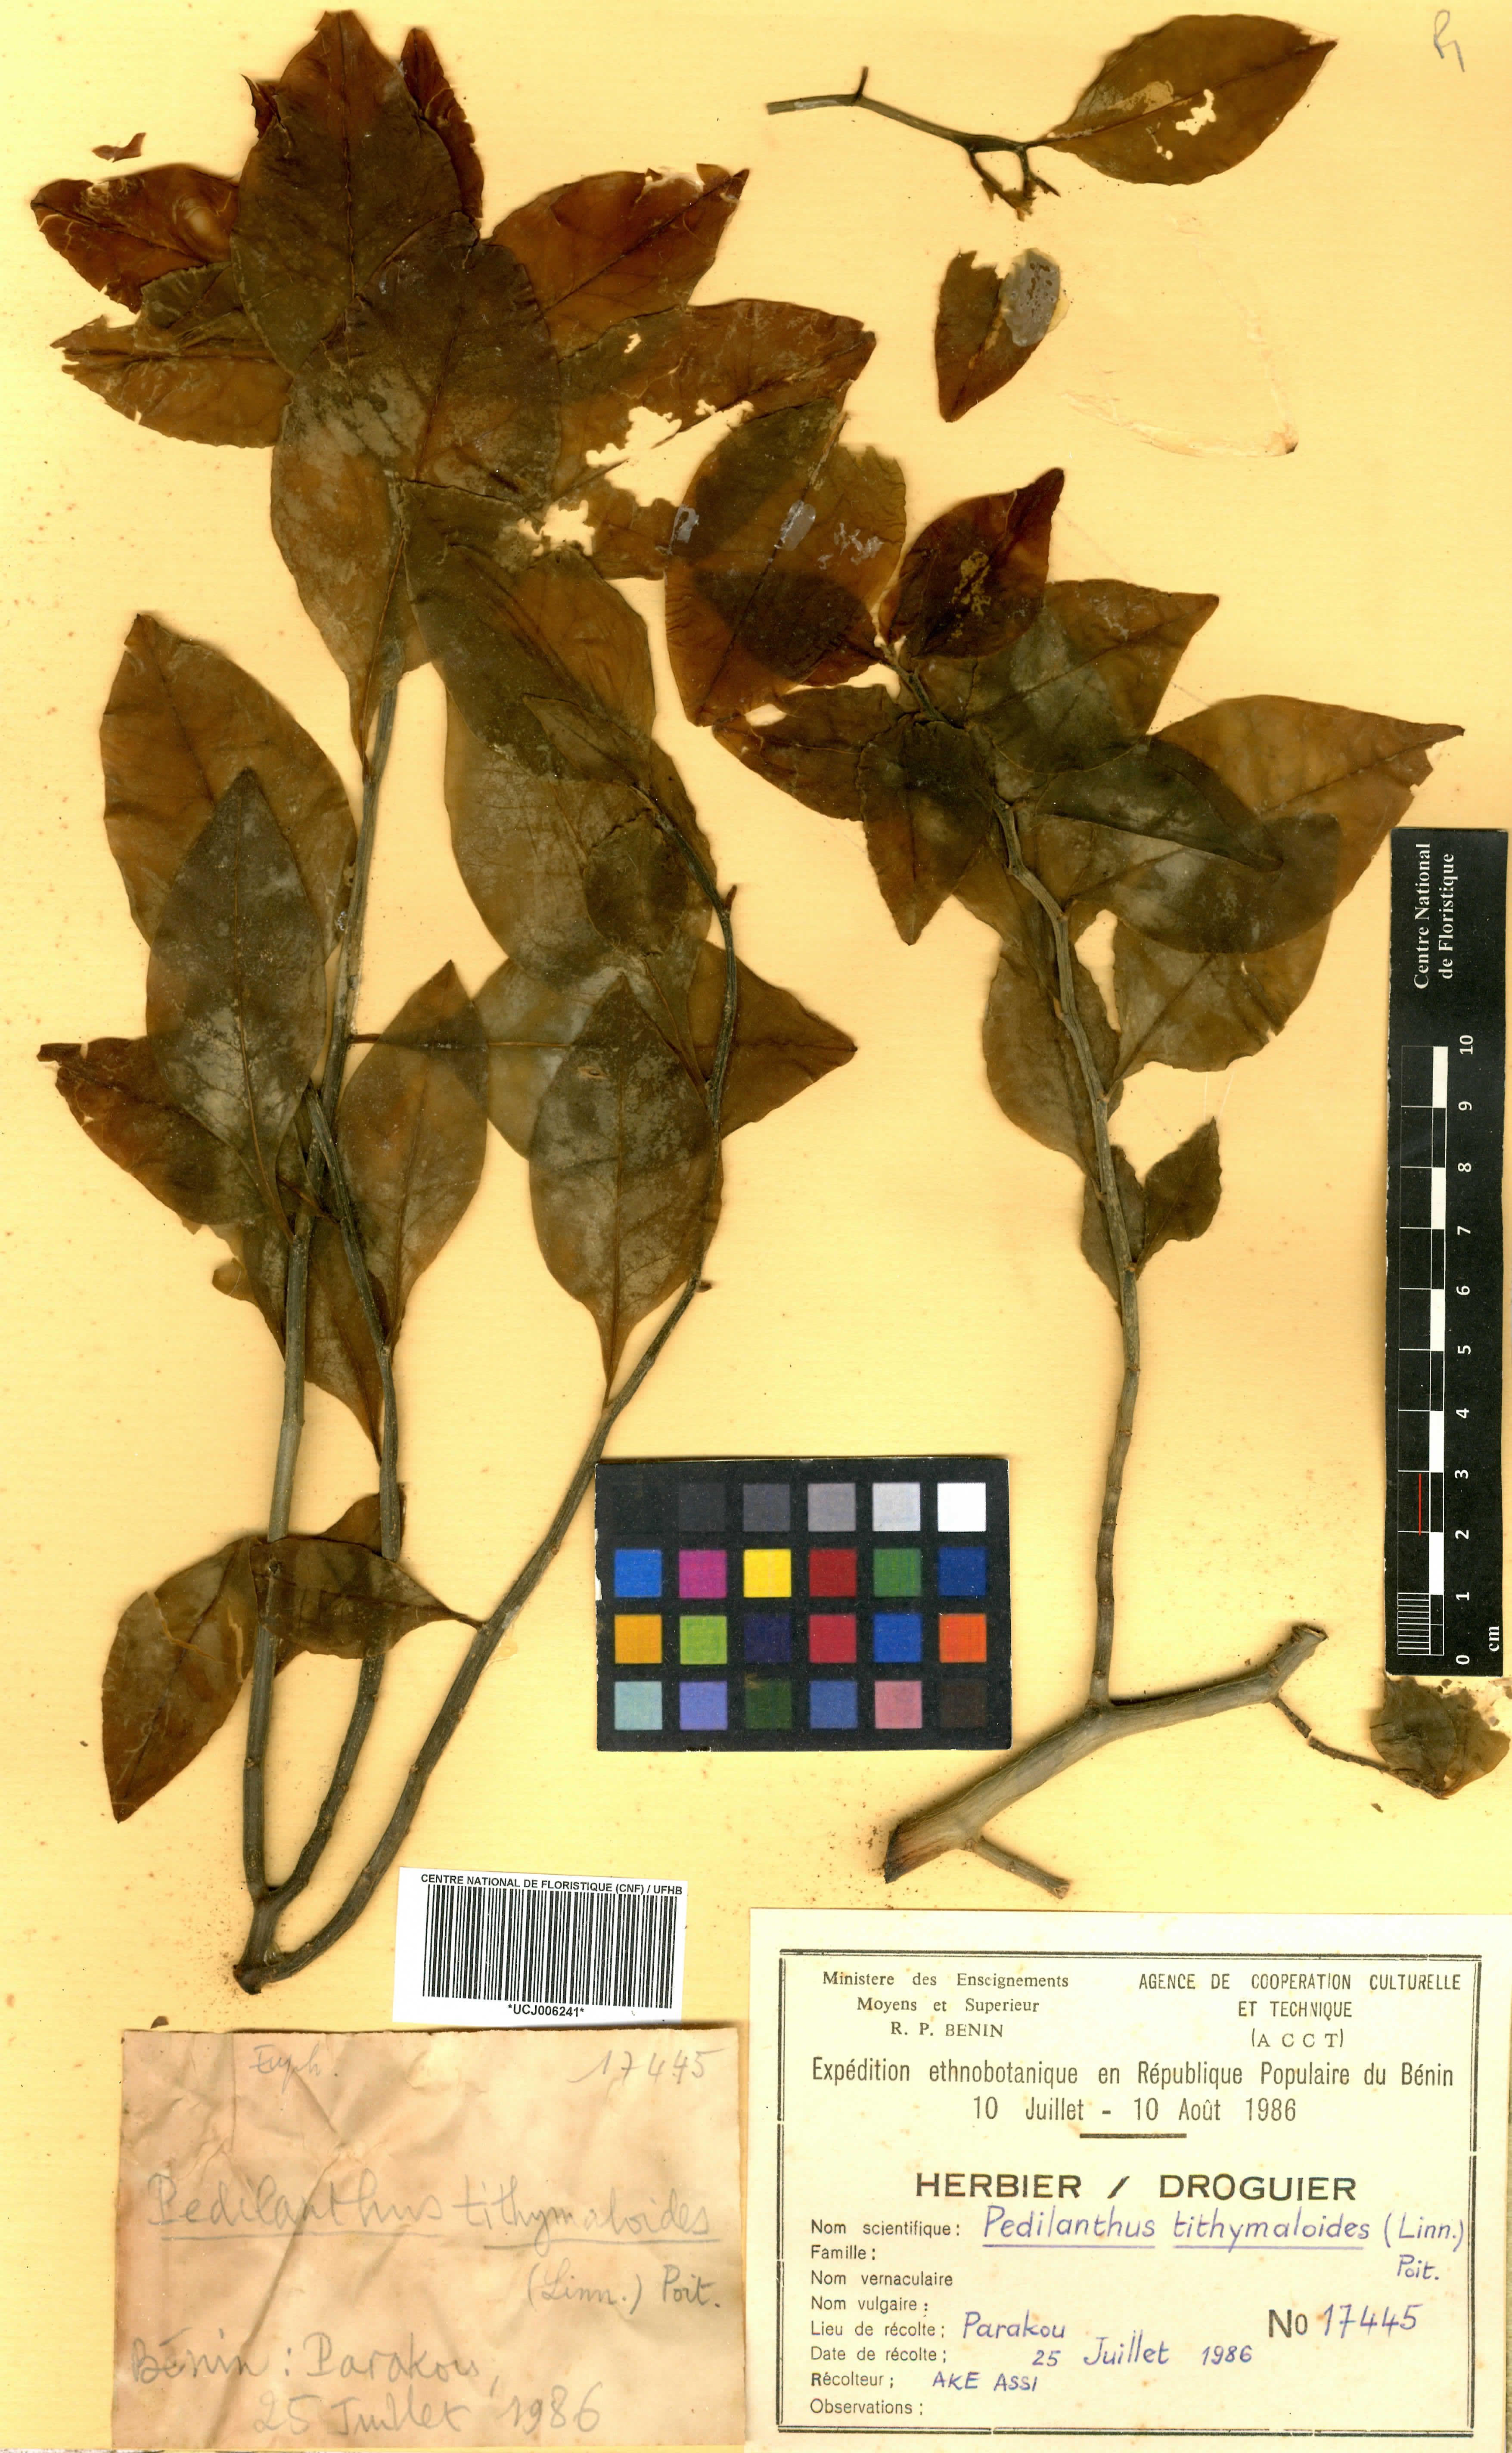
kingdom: Plantae
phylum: Tracheophyta
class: Magnoliopsida
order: Malpighiales
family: Euphorbiaceae
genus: Euphorbia
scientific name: Euphorbia tithymaloides
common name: Slipperplant
